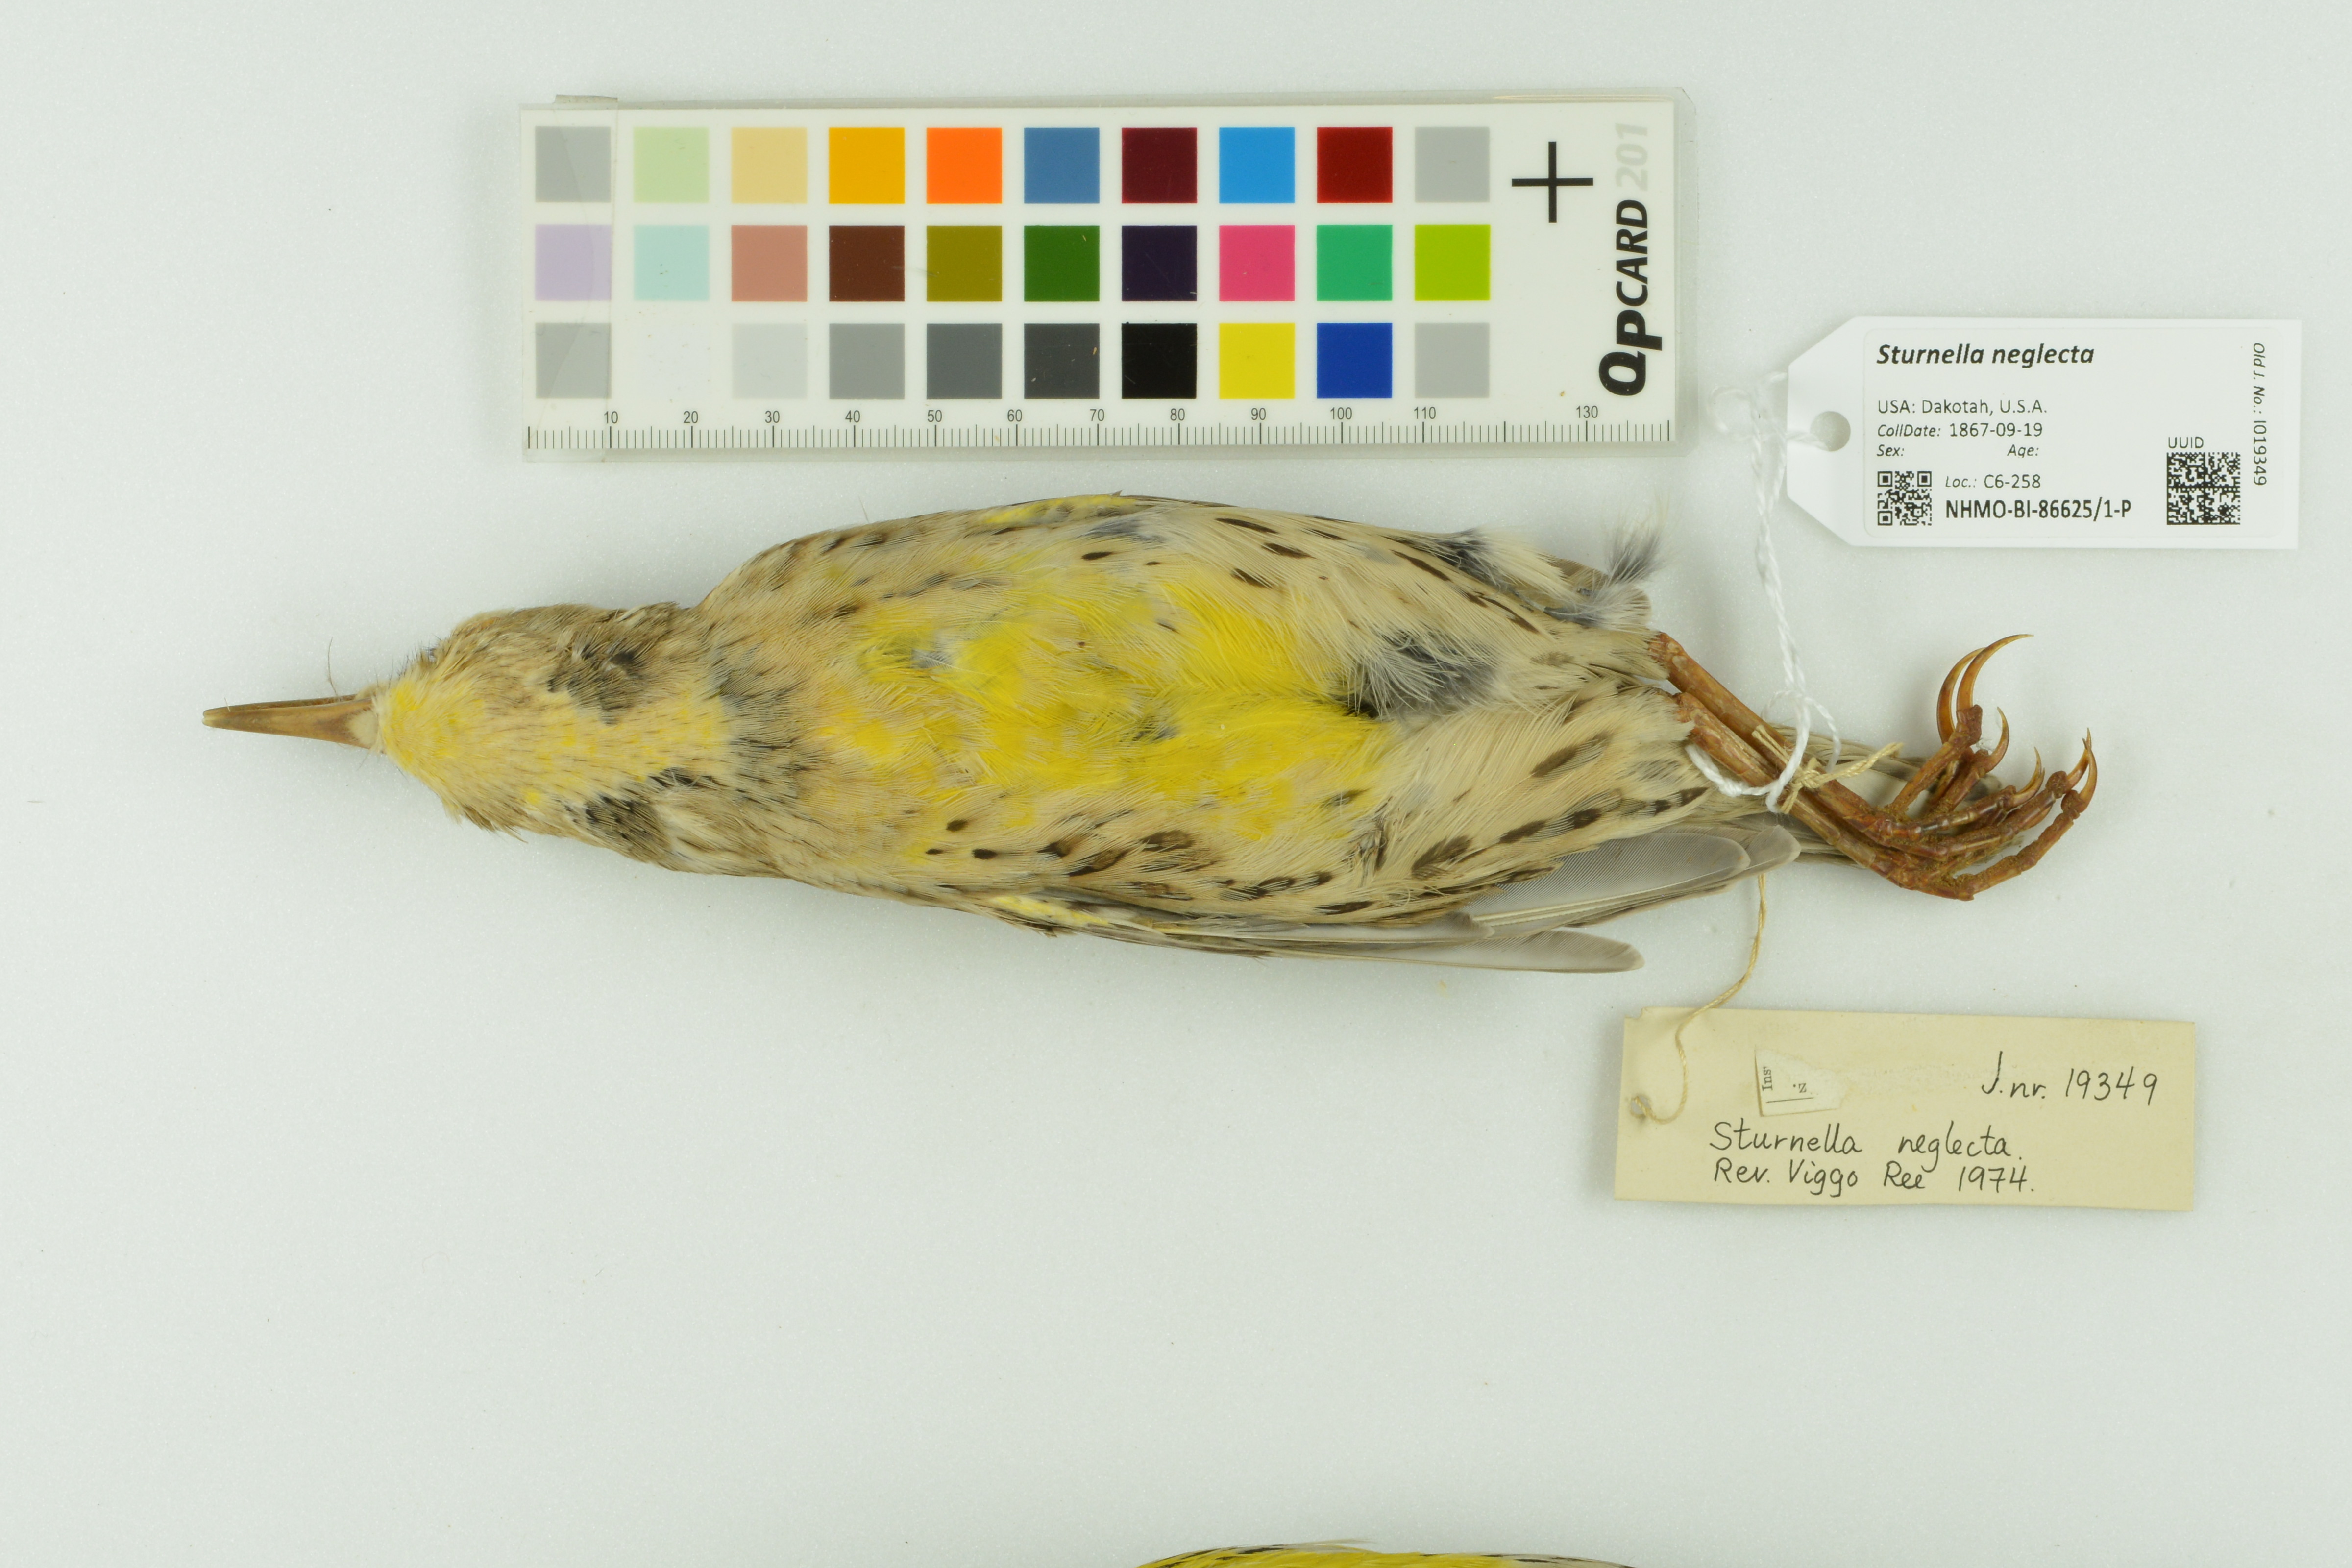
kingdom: Animalia
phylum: Chordata
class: Aves
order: Passeriformes
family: Icteridae
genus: Sturnella
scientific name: Sturnella neglecta
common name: Western meadowlark
